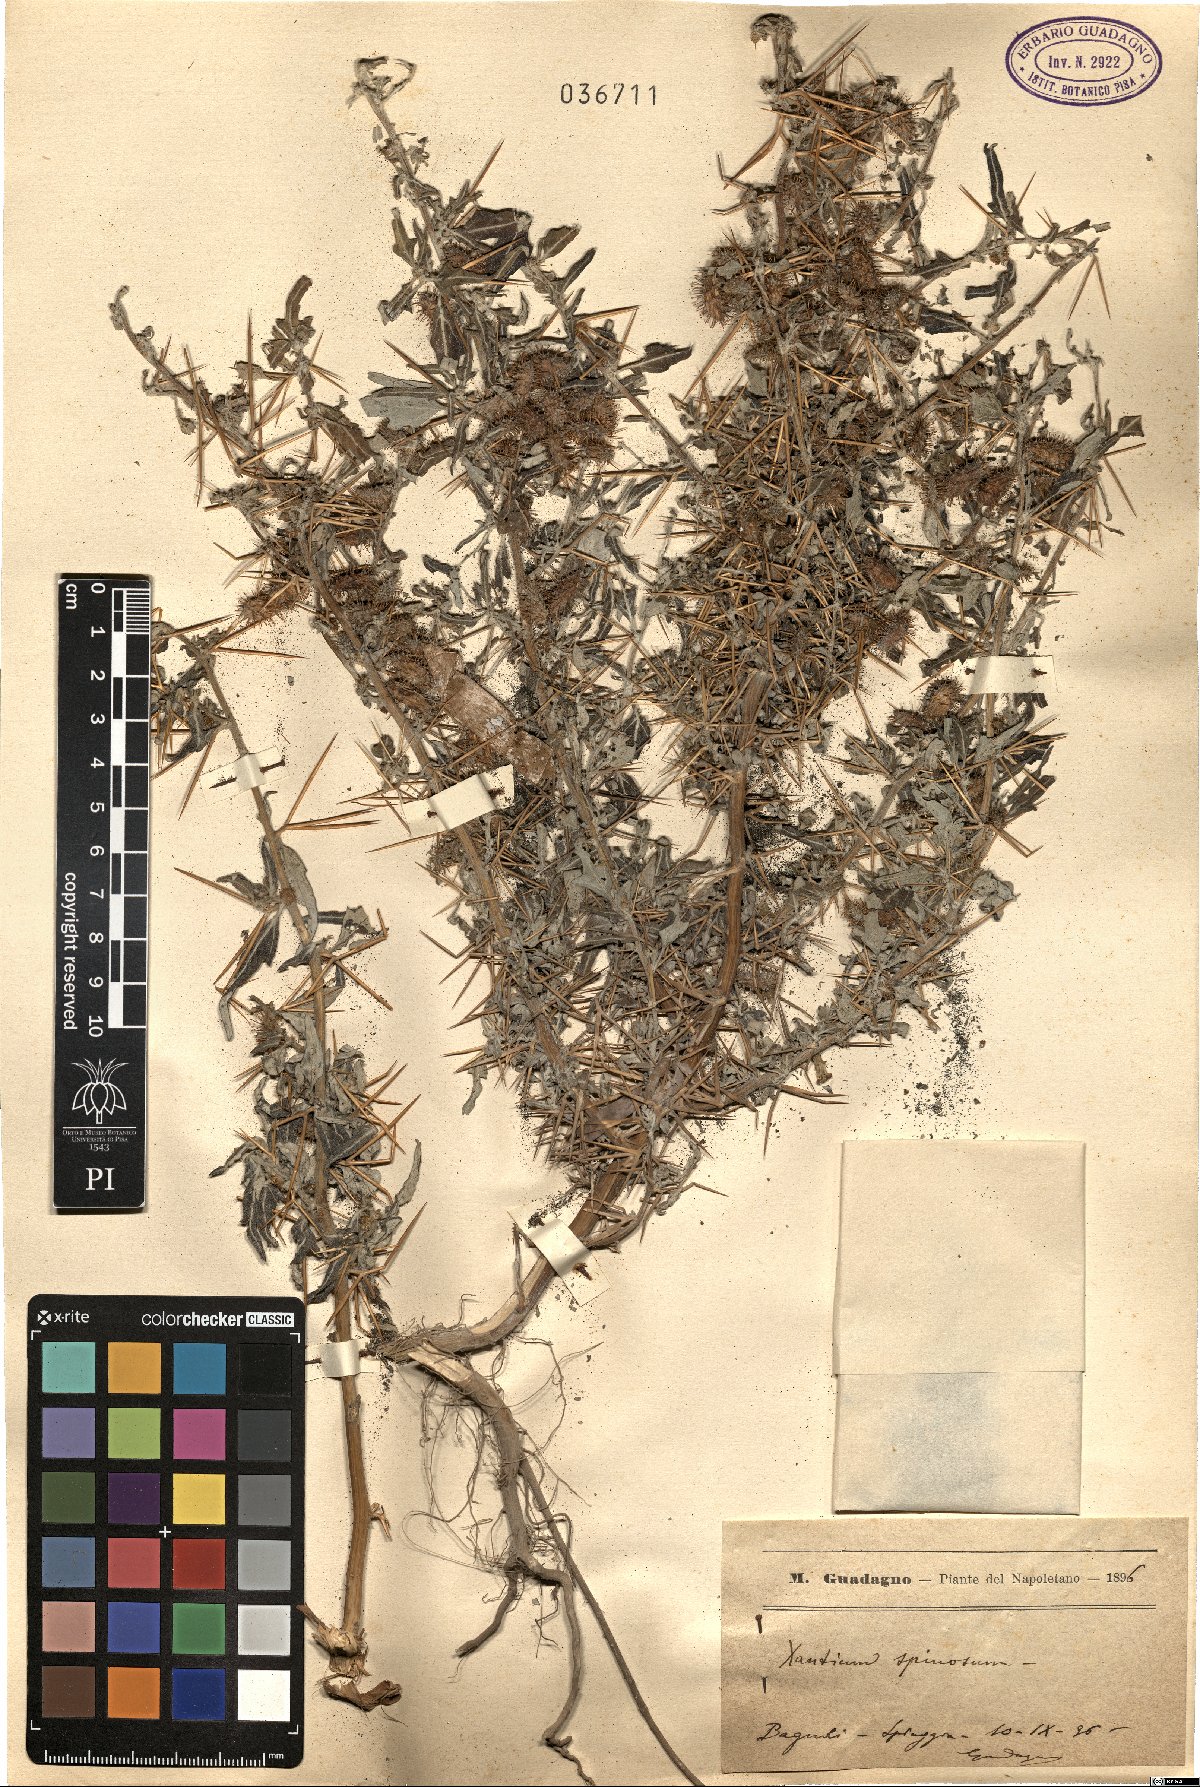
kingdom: Plantae
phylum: Tracheophyta
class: Magnoliopsida
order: Asterales
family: Asteraceae
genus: Xanthium
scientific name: Xanthium spinosum
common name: Spiny cocklebur
